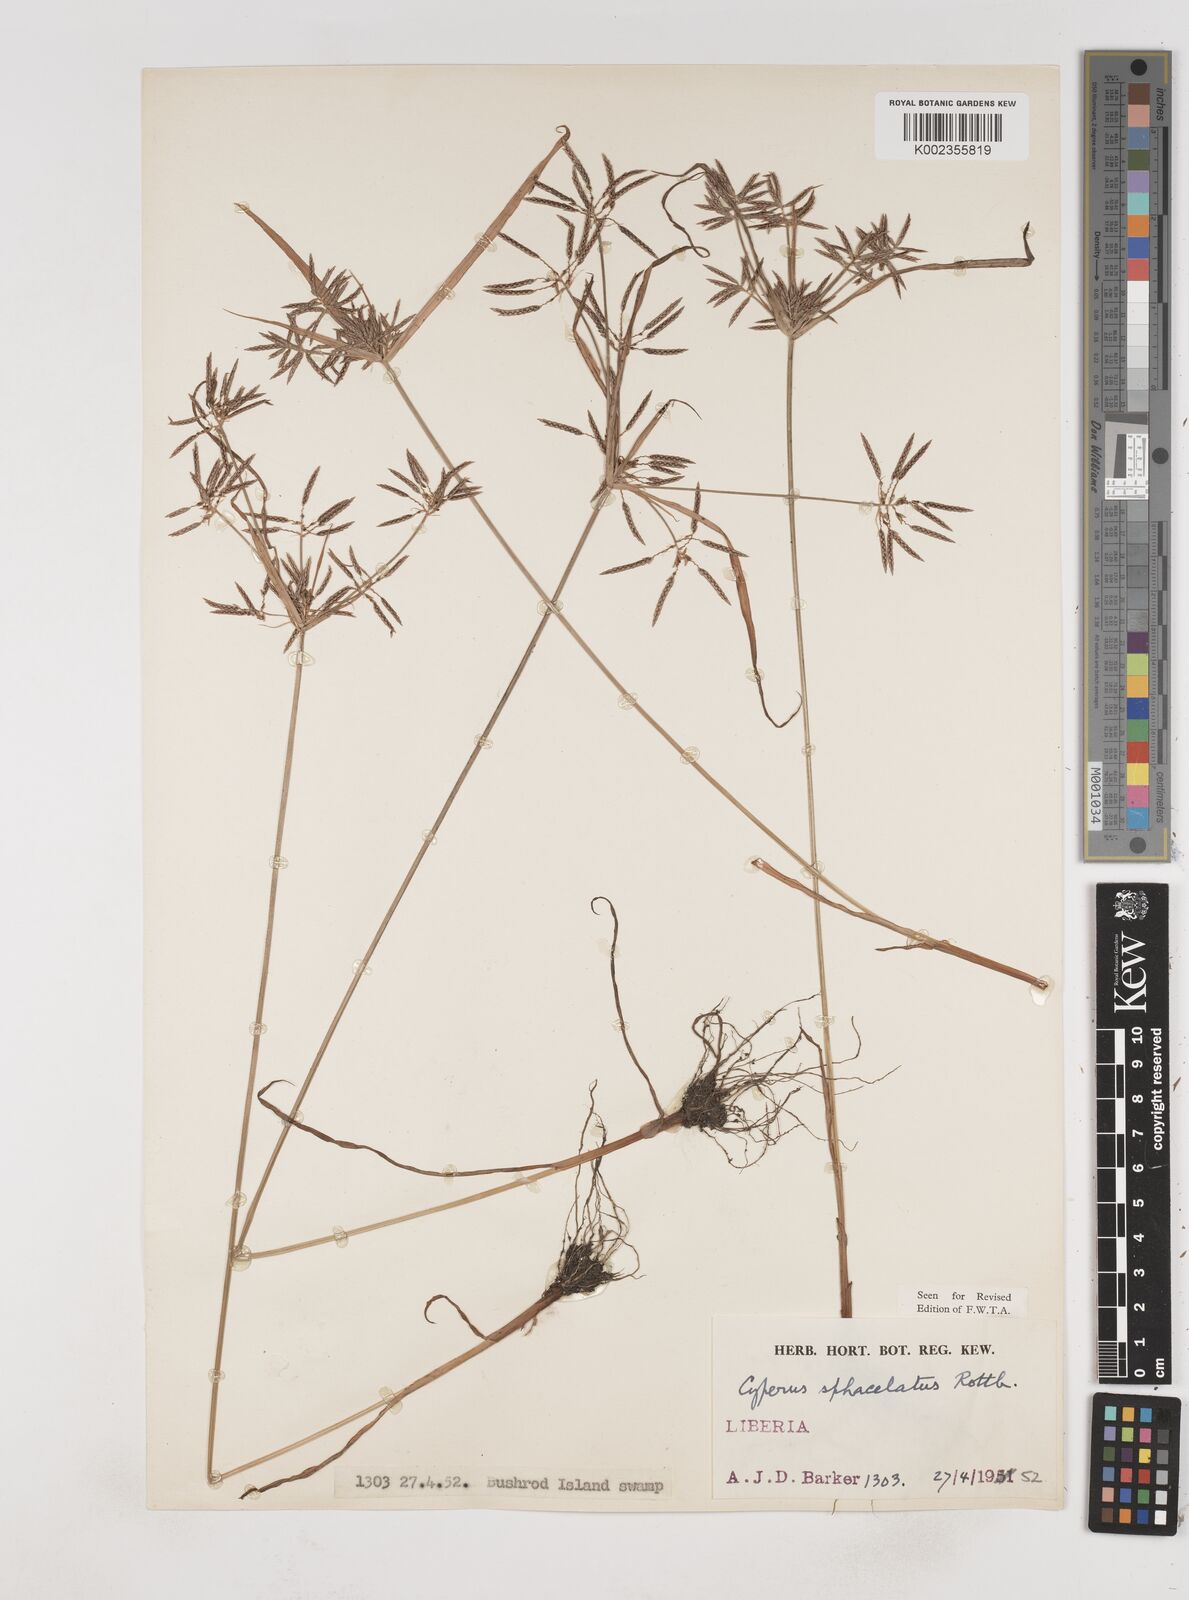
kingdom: Plantae
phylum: Tracheophyta
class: Liliopsida
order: Poales
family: Cyperaceae
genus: Cyperus
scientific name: Cyperus sphacelatus
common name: Roadside flatsedge
